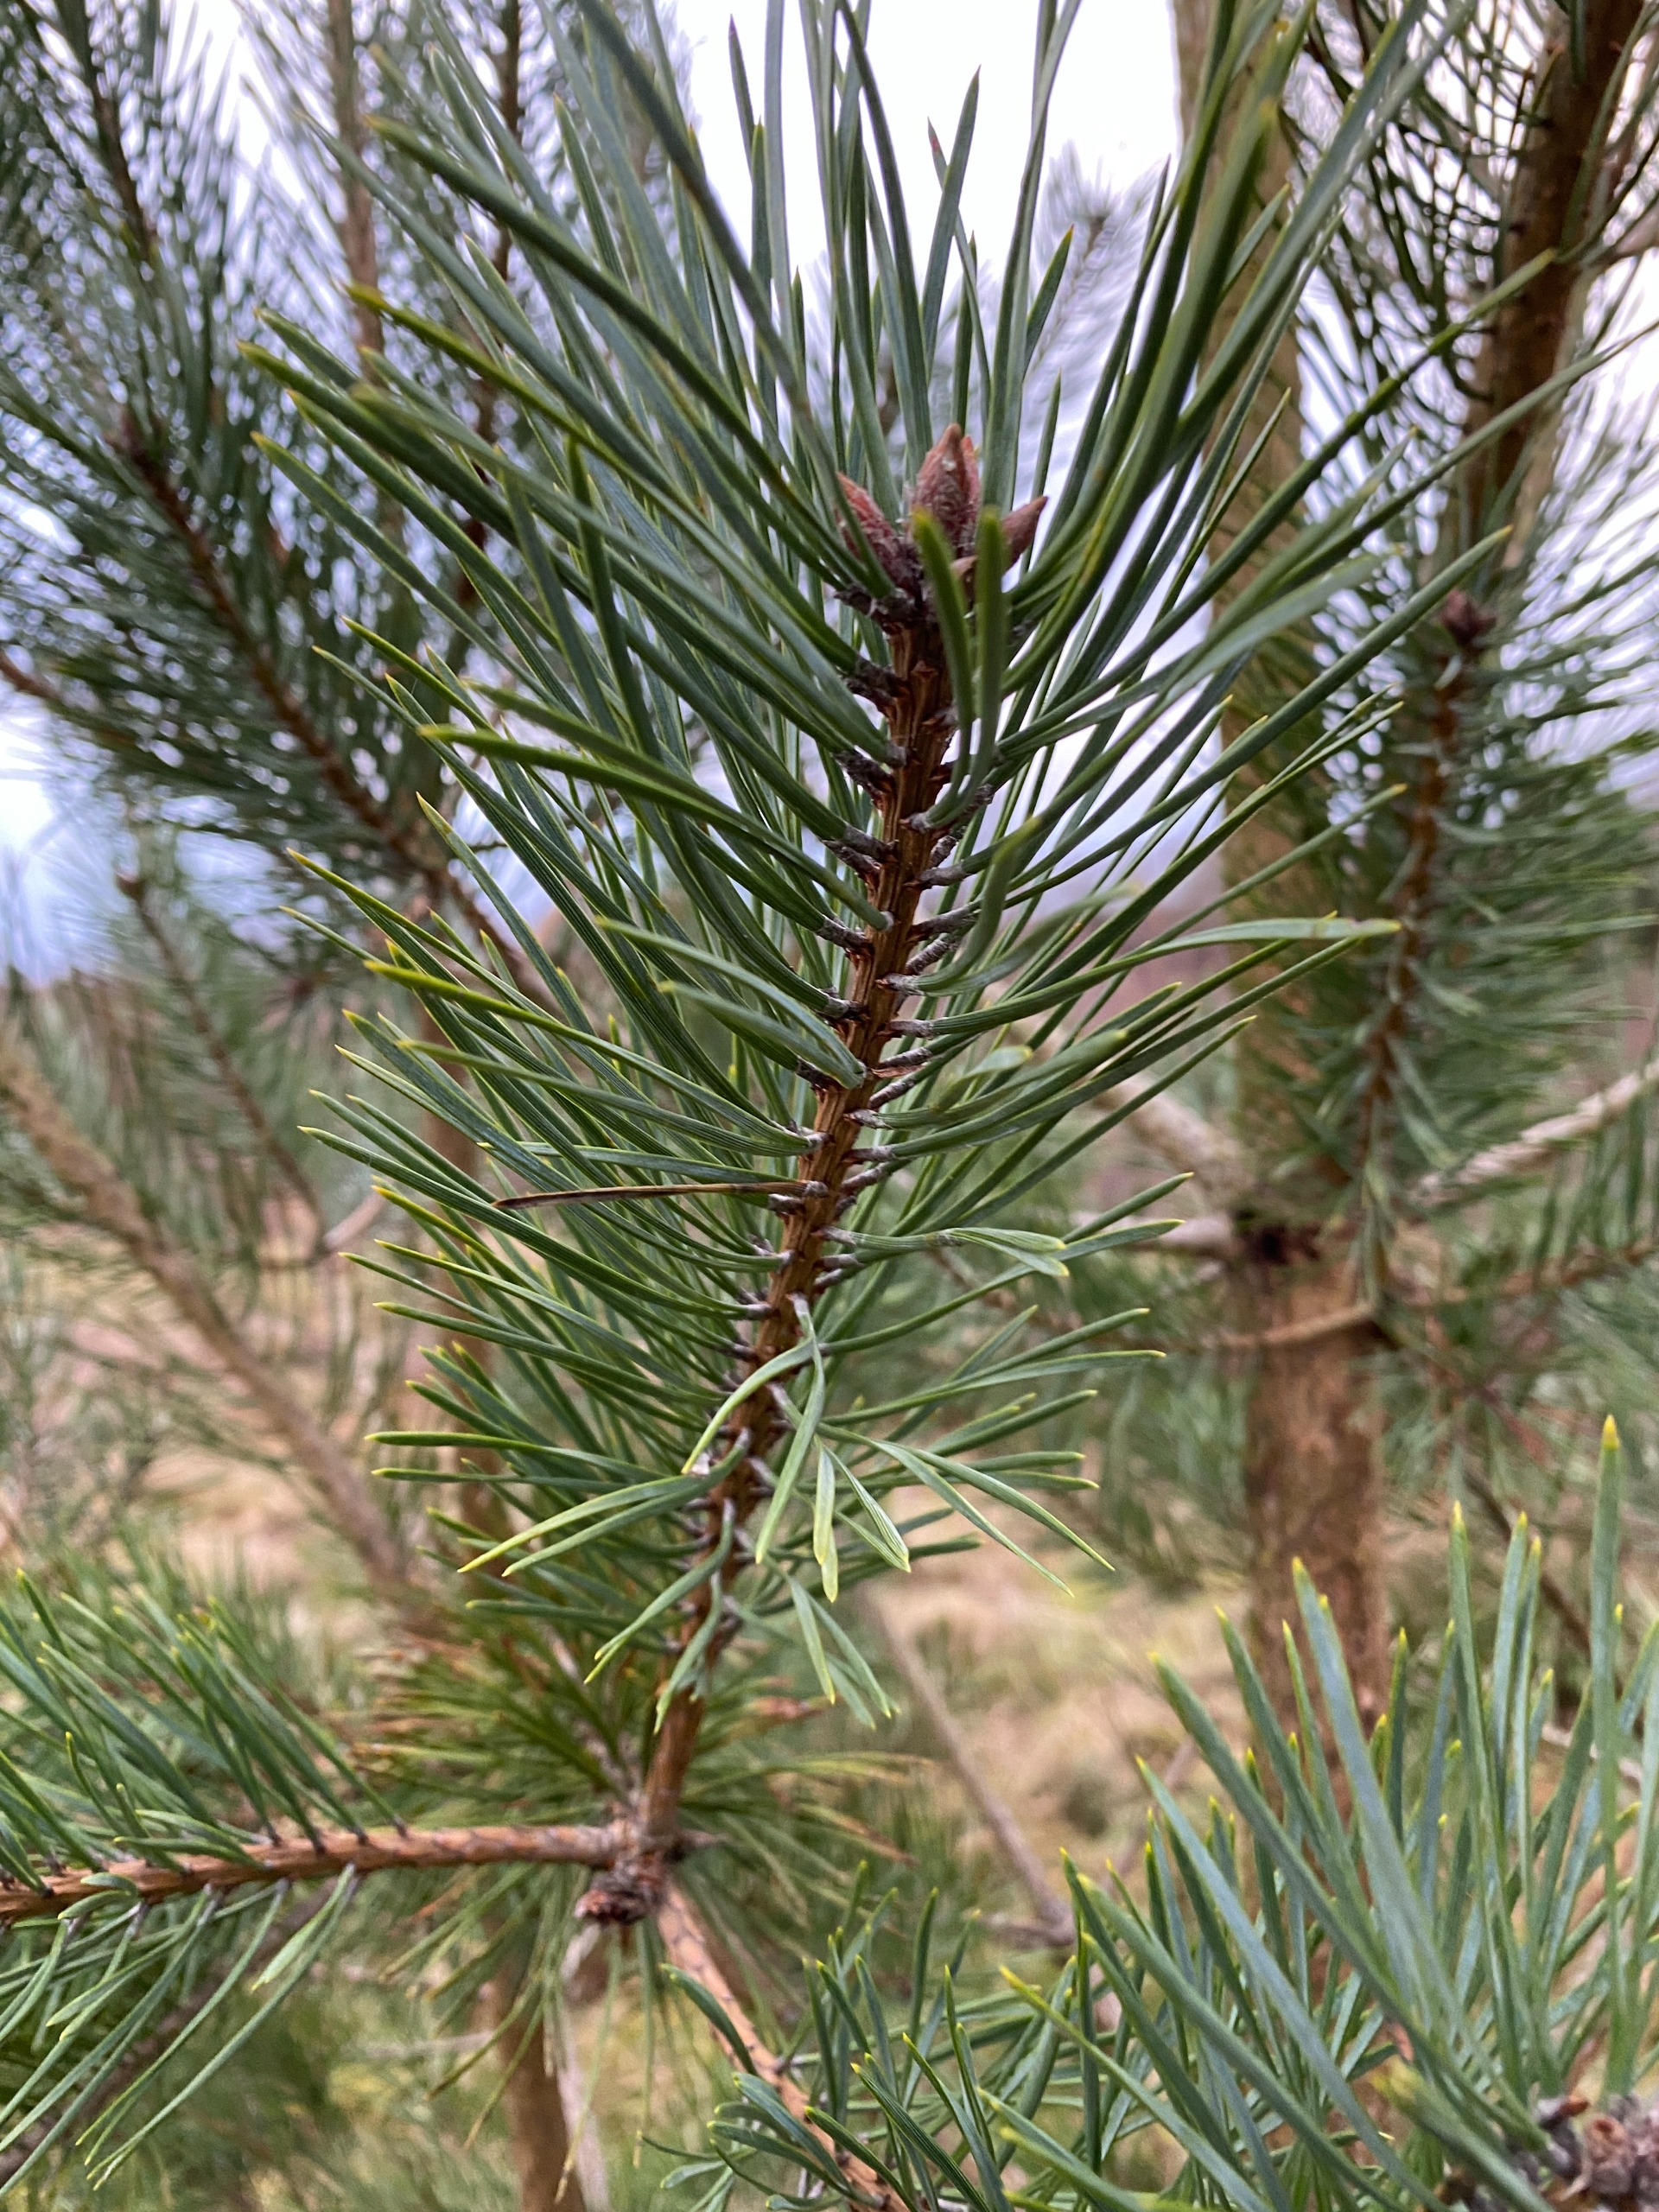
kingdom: Plantae
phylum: Tracheophyta
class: Pinopsida
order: Pinales
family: Pinaceae
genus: Pinus
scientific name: Pinus sylvestris
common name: Skov-fyr
